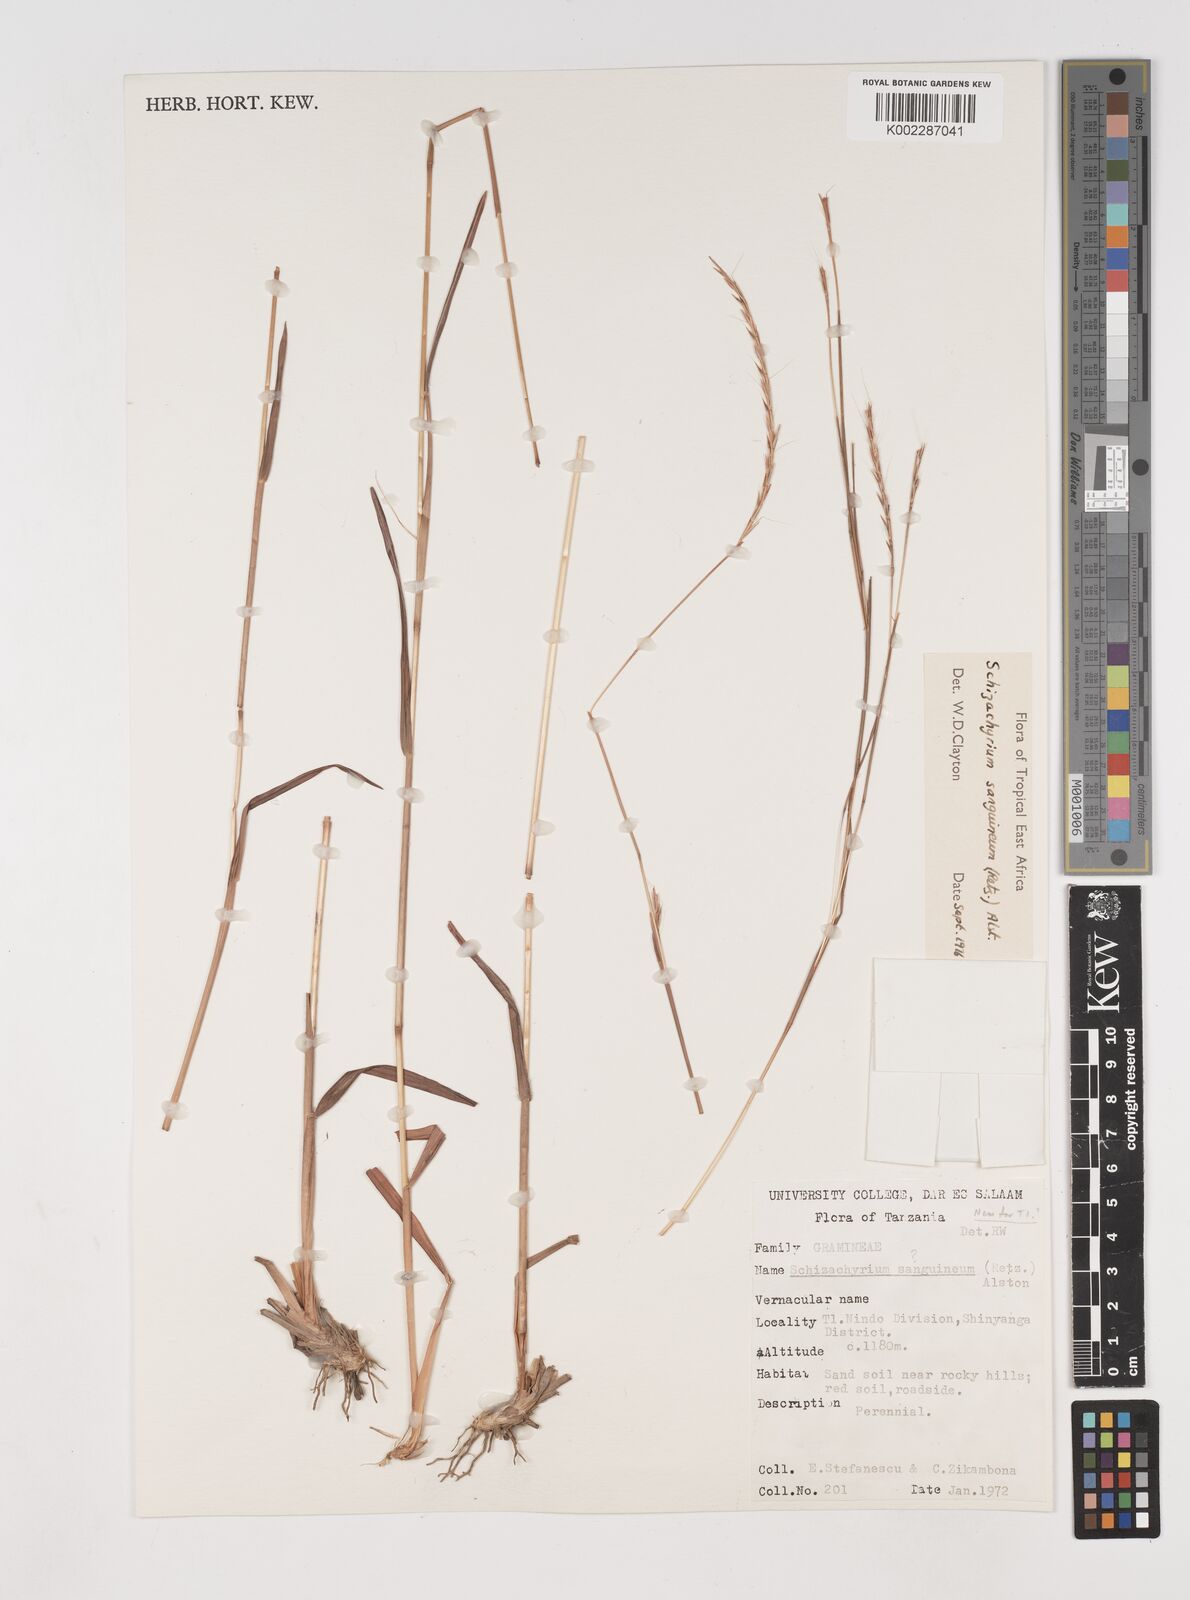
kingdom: Plantae
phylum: Tracheophyta
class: Liliopsida
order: Poales
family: Poaceae
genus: Schizachyrium
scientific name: Schizachyrium sanguineum
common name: Crimson bluestem
